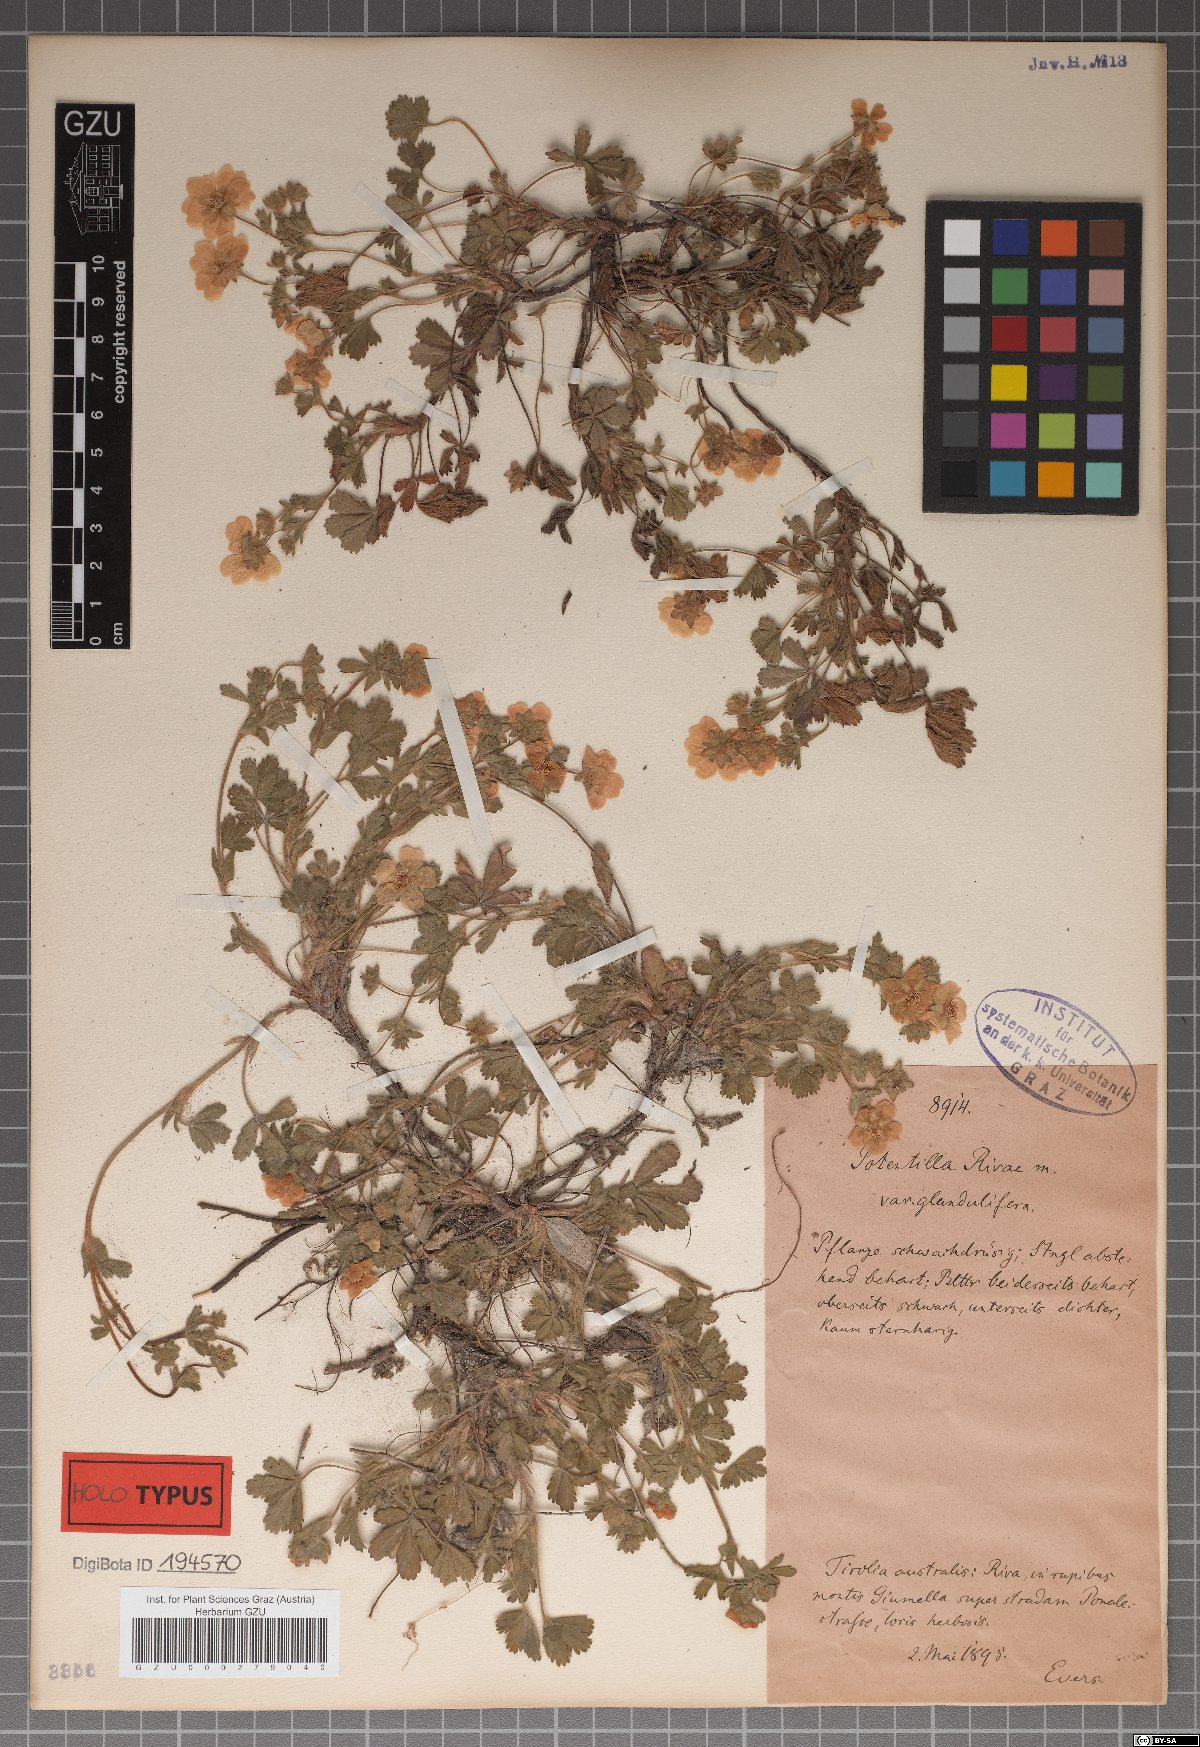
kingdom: Plantae
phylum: Tracheophyta
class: Magnoliopsida
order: Rosales
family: Rosaceae
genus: Potentilla
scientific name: Potentilla pusilla
